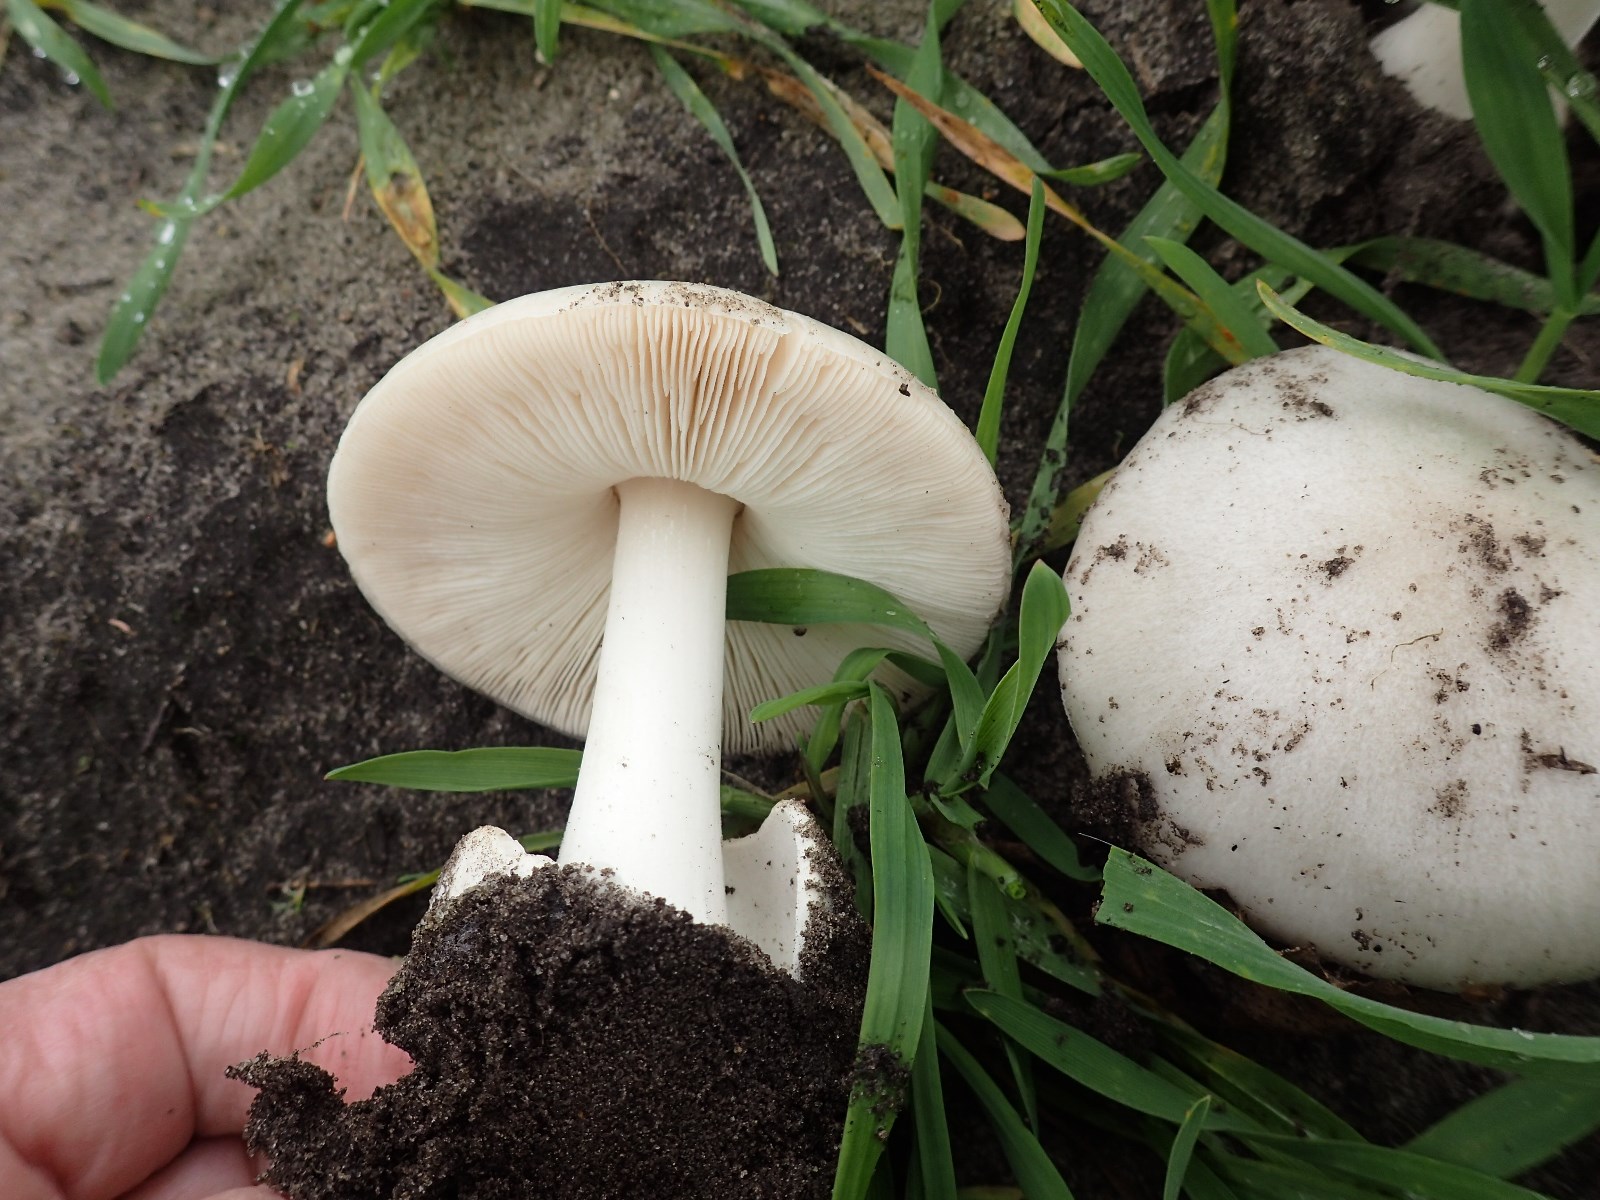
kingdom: Fungi
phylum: Basidiomycota
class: Agaricomycetes
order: Agaricales
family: Pluteaceae
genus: Volvopluteus
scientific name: Volvopluteus gloiocephalus
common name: høj posesvamp
